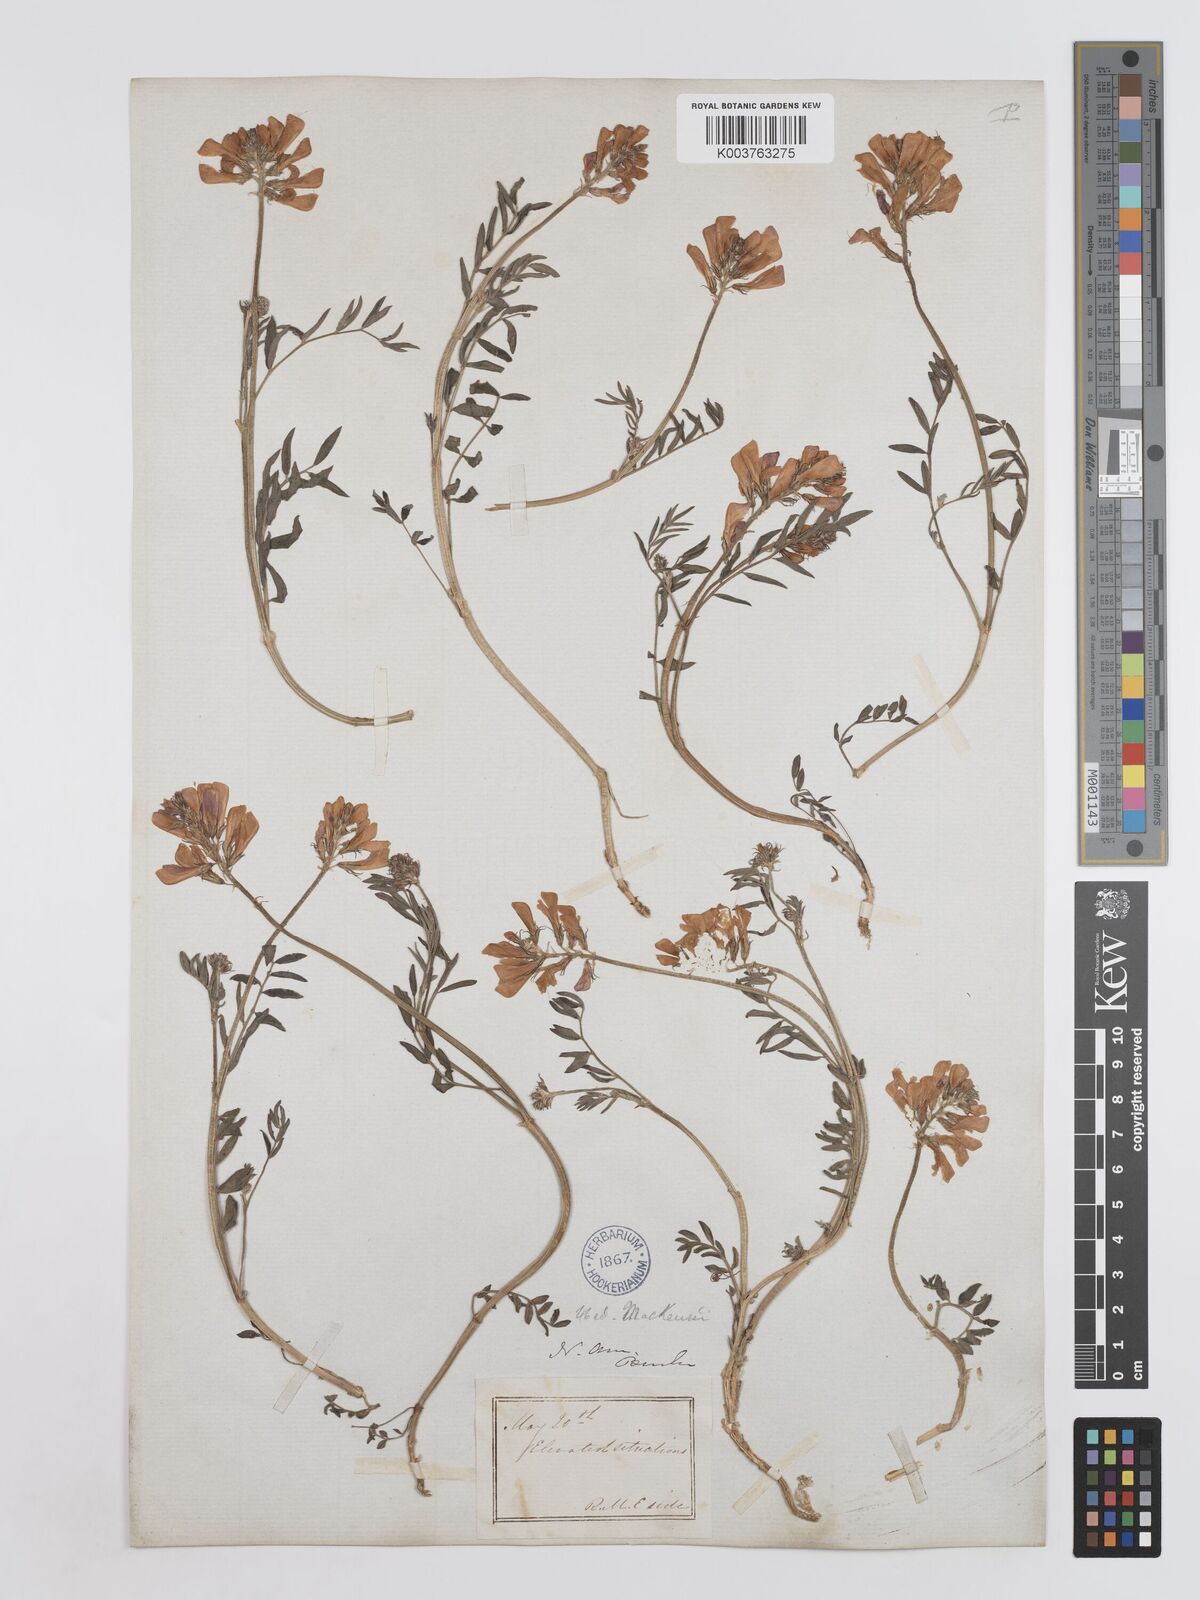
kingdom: Plantae
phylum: Tracheophyta
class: Magnoliopsida
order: Fabales
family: Fabaceae
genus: Hedysarum
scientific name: Hedysarum boreale
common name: Northern sweet-vetch
